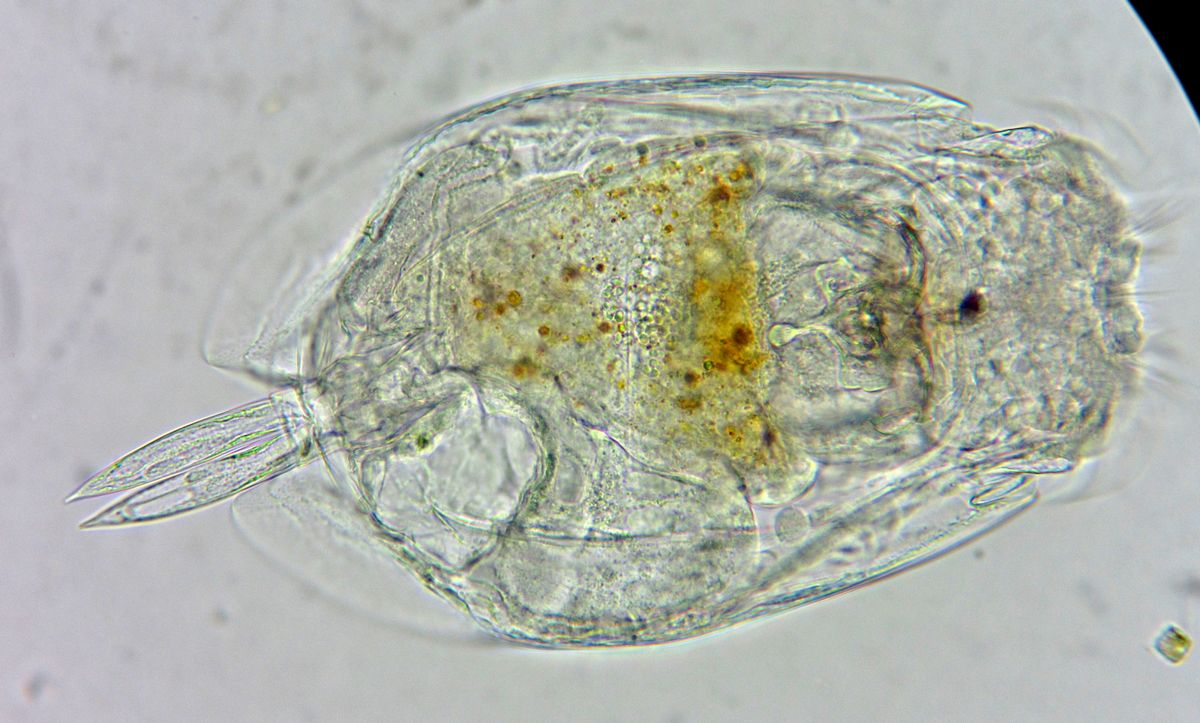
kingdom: Animalia
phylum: Rotifera
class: Eurotatoria
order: Ploima
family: Euchlanidae
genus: Euchlanis
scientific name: Euchlanis dilatata
